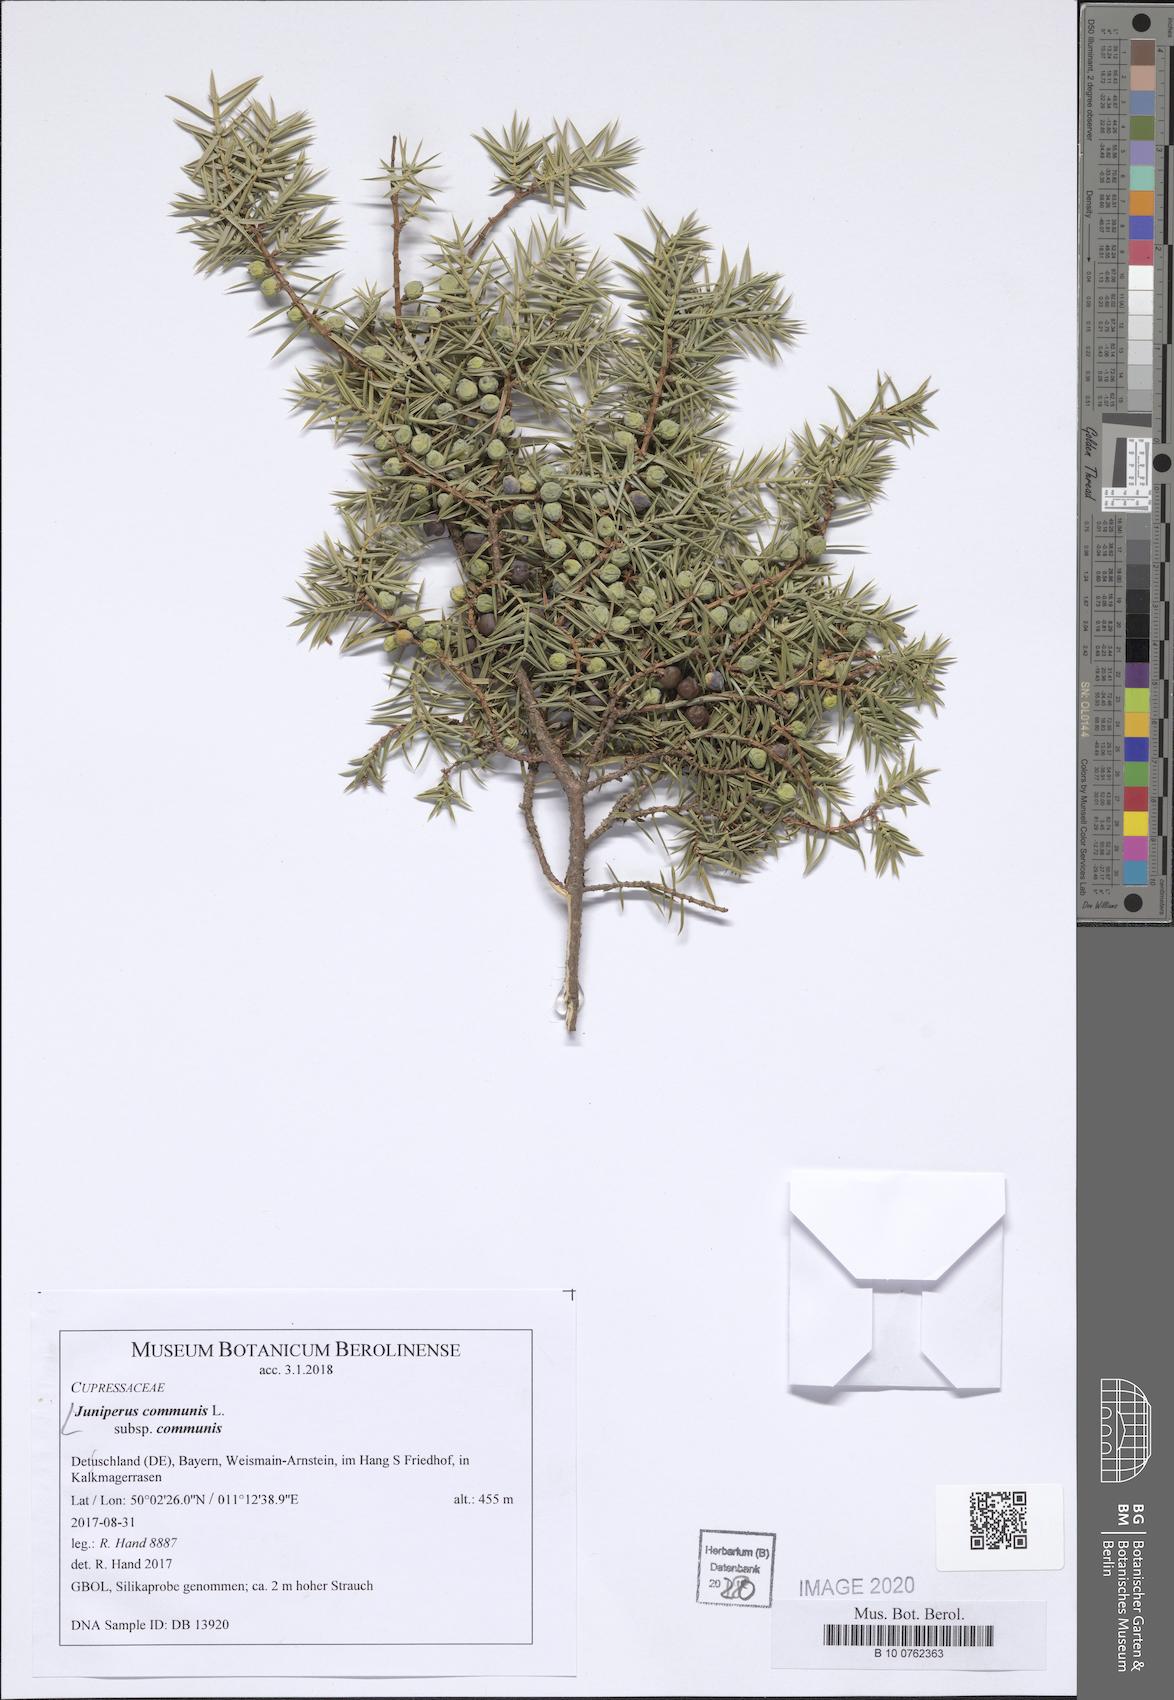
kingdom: Plantae
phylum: Tracheophyta
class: Pinopsida
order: Pinales
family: Cupressaceae
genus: Juniperus
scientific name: Juniperus communis
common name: Common juniper
